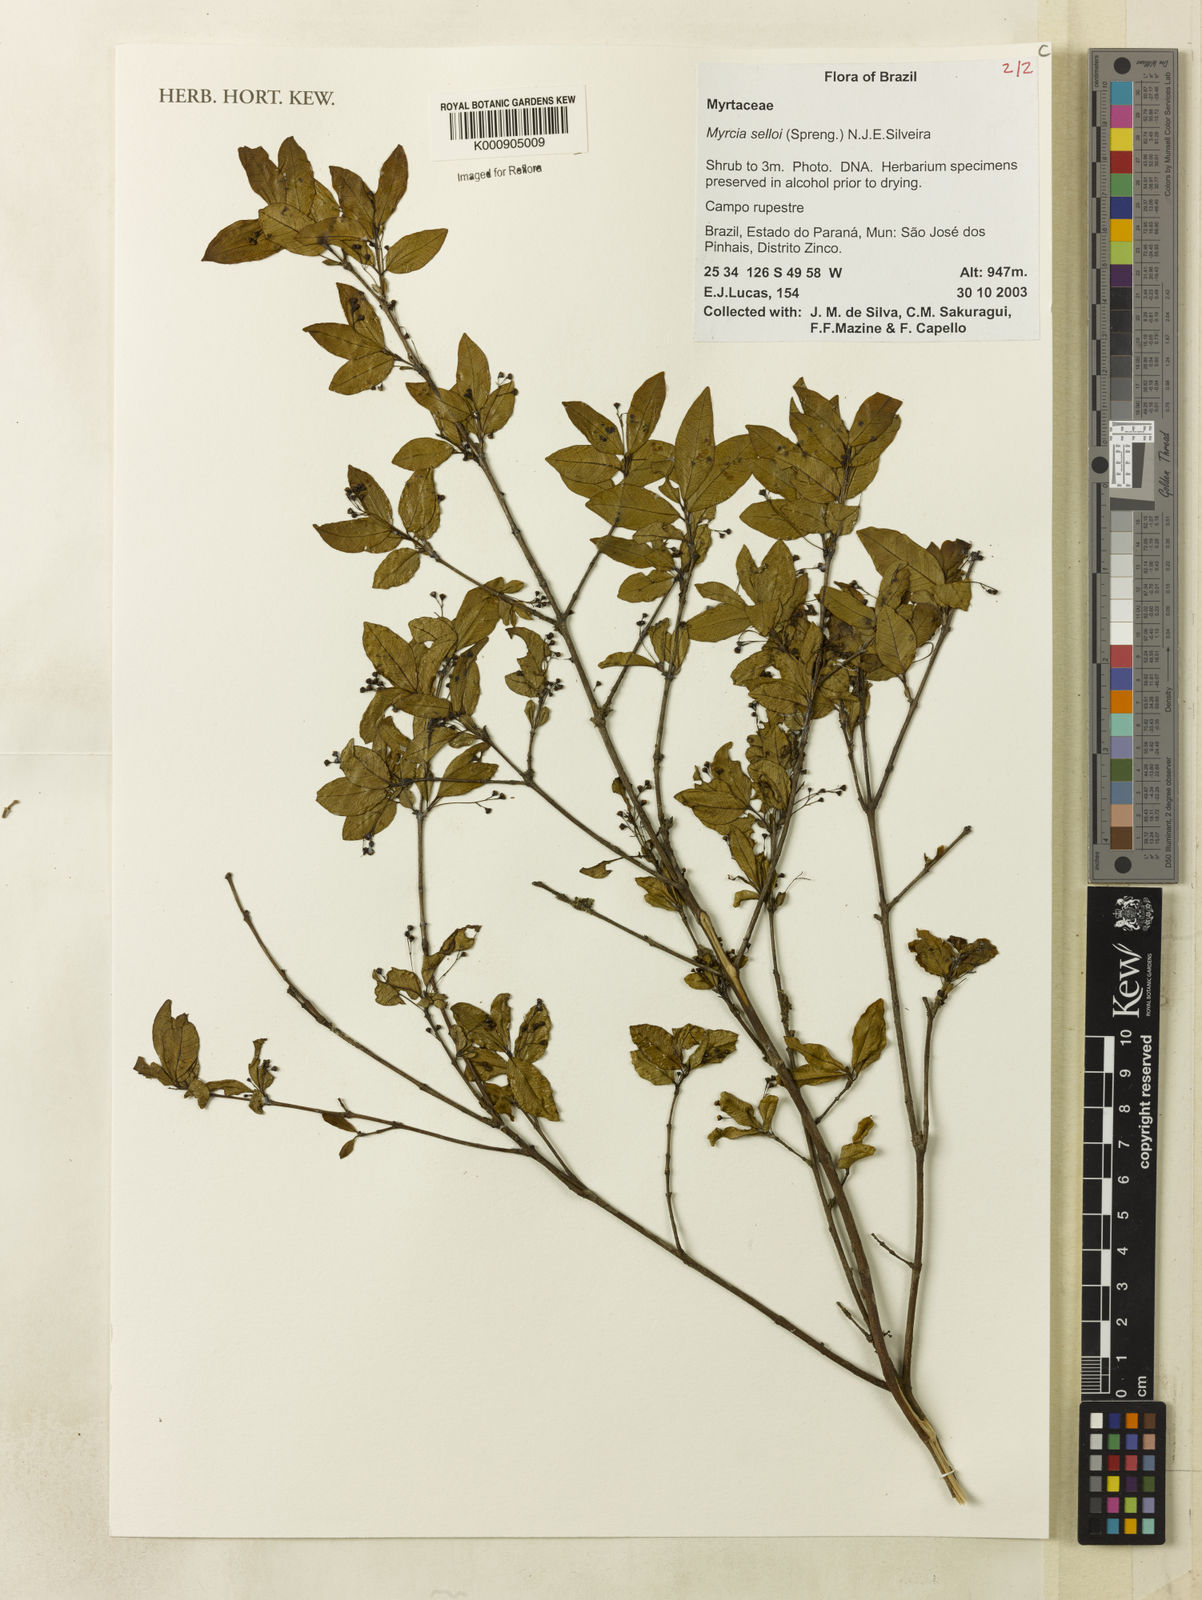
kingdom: Plantae
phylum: Tracheophyta
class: Magnoliopsida
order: Myrtales
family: Myrtaceae
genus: Myrcia
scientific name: Myrcia selloi
